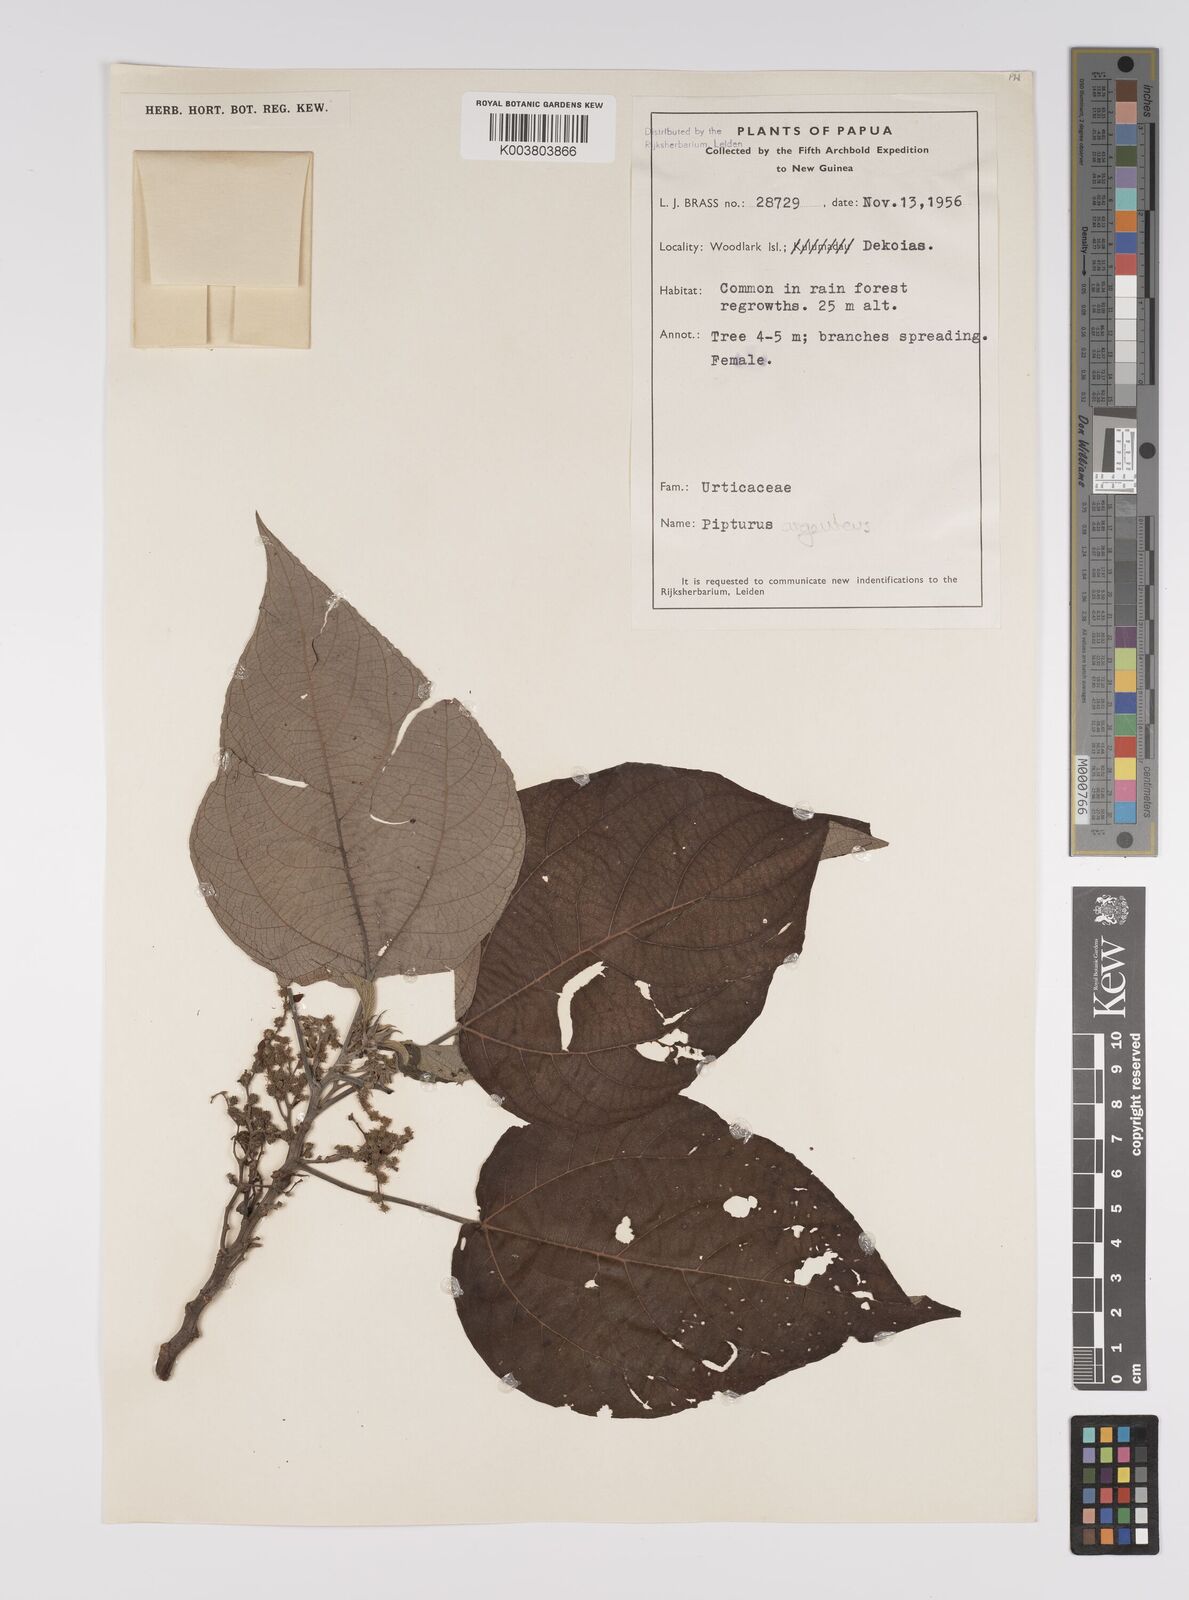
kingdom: Plantae
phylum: Tracheophyta
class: Magnoliopsida
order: Rosales
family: Urticaceae
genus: Pipturus
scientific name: Pipturus argenteus
